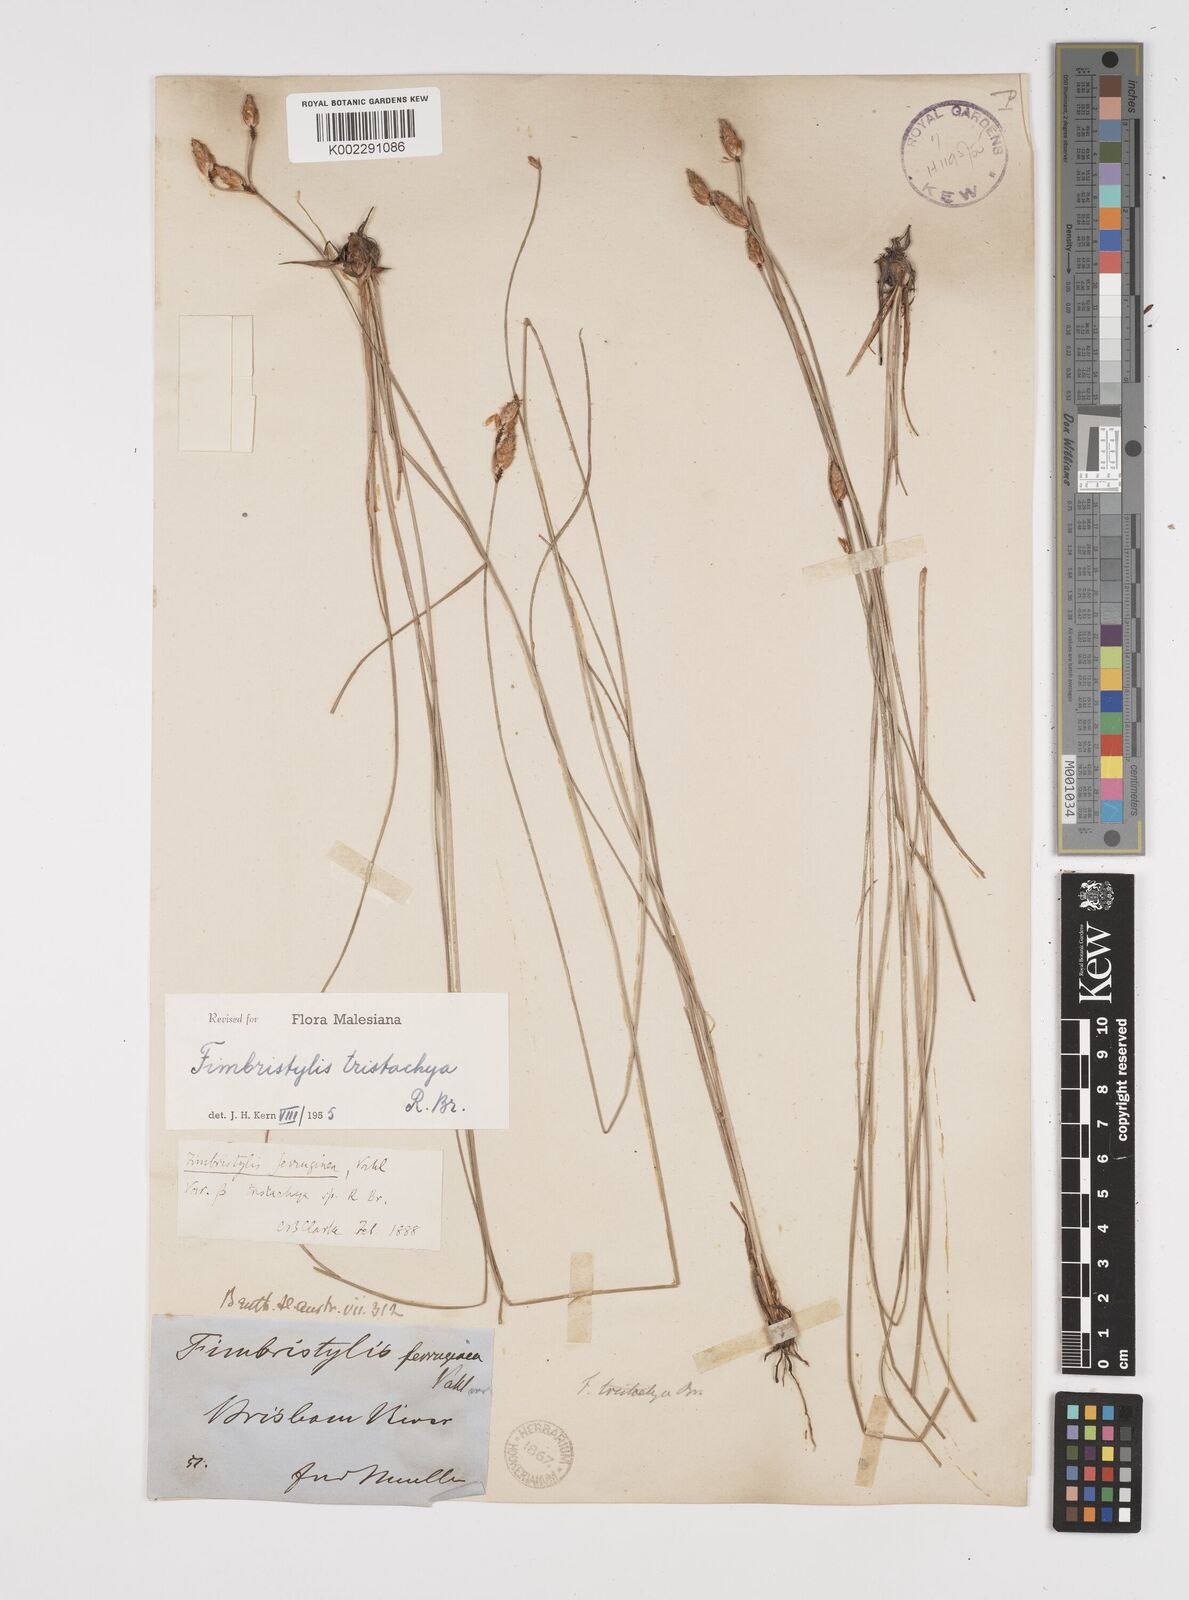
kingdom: Plantae
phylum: Tracheophyta
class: Liliopsida
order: Poales
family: Cyperaceae
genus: Fimbristylis
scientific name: Fimbristylis tristachya
